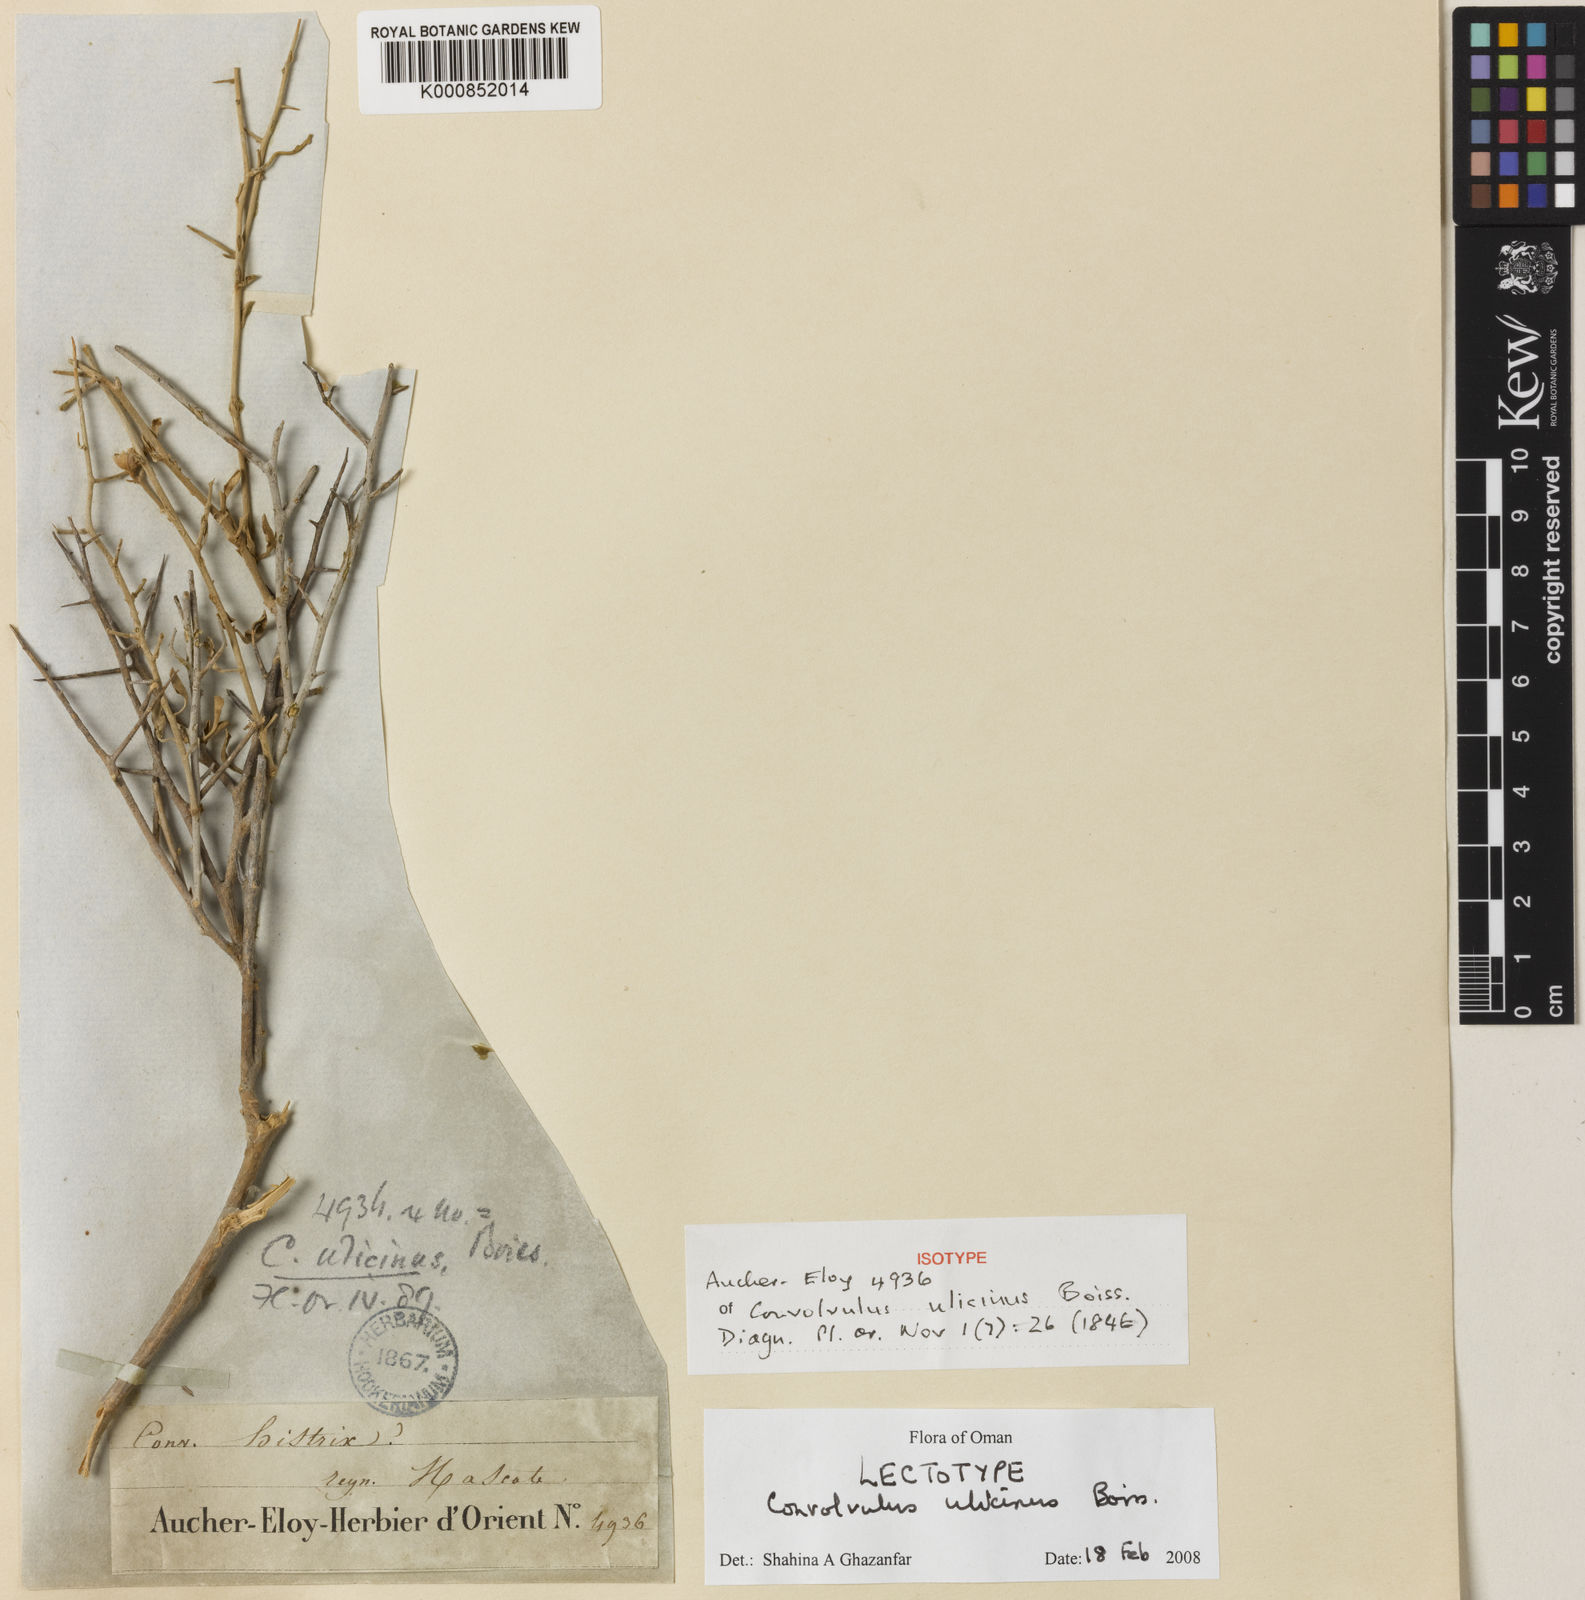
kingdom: Plantae
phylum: Tracheophyta
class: Magnoliopsida
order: Solanales
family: Convolvulaceae
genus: Convolvulus
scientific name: Convolvulus
